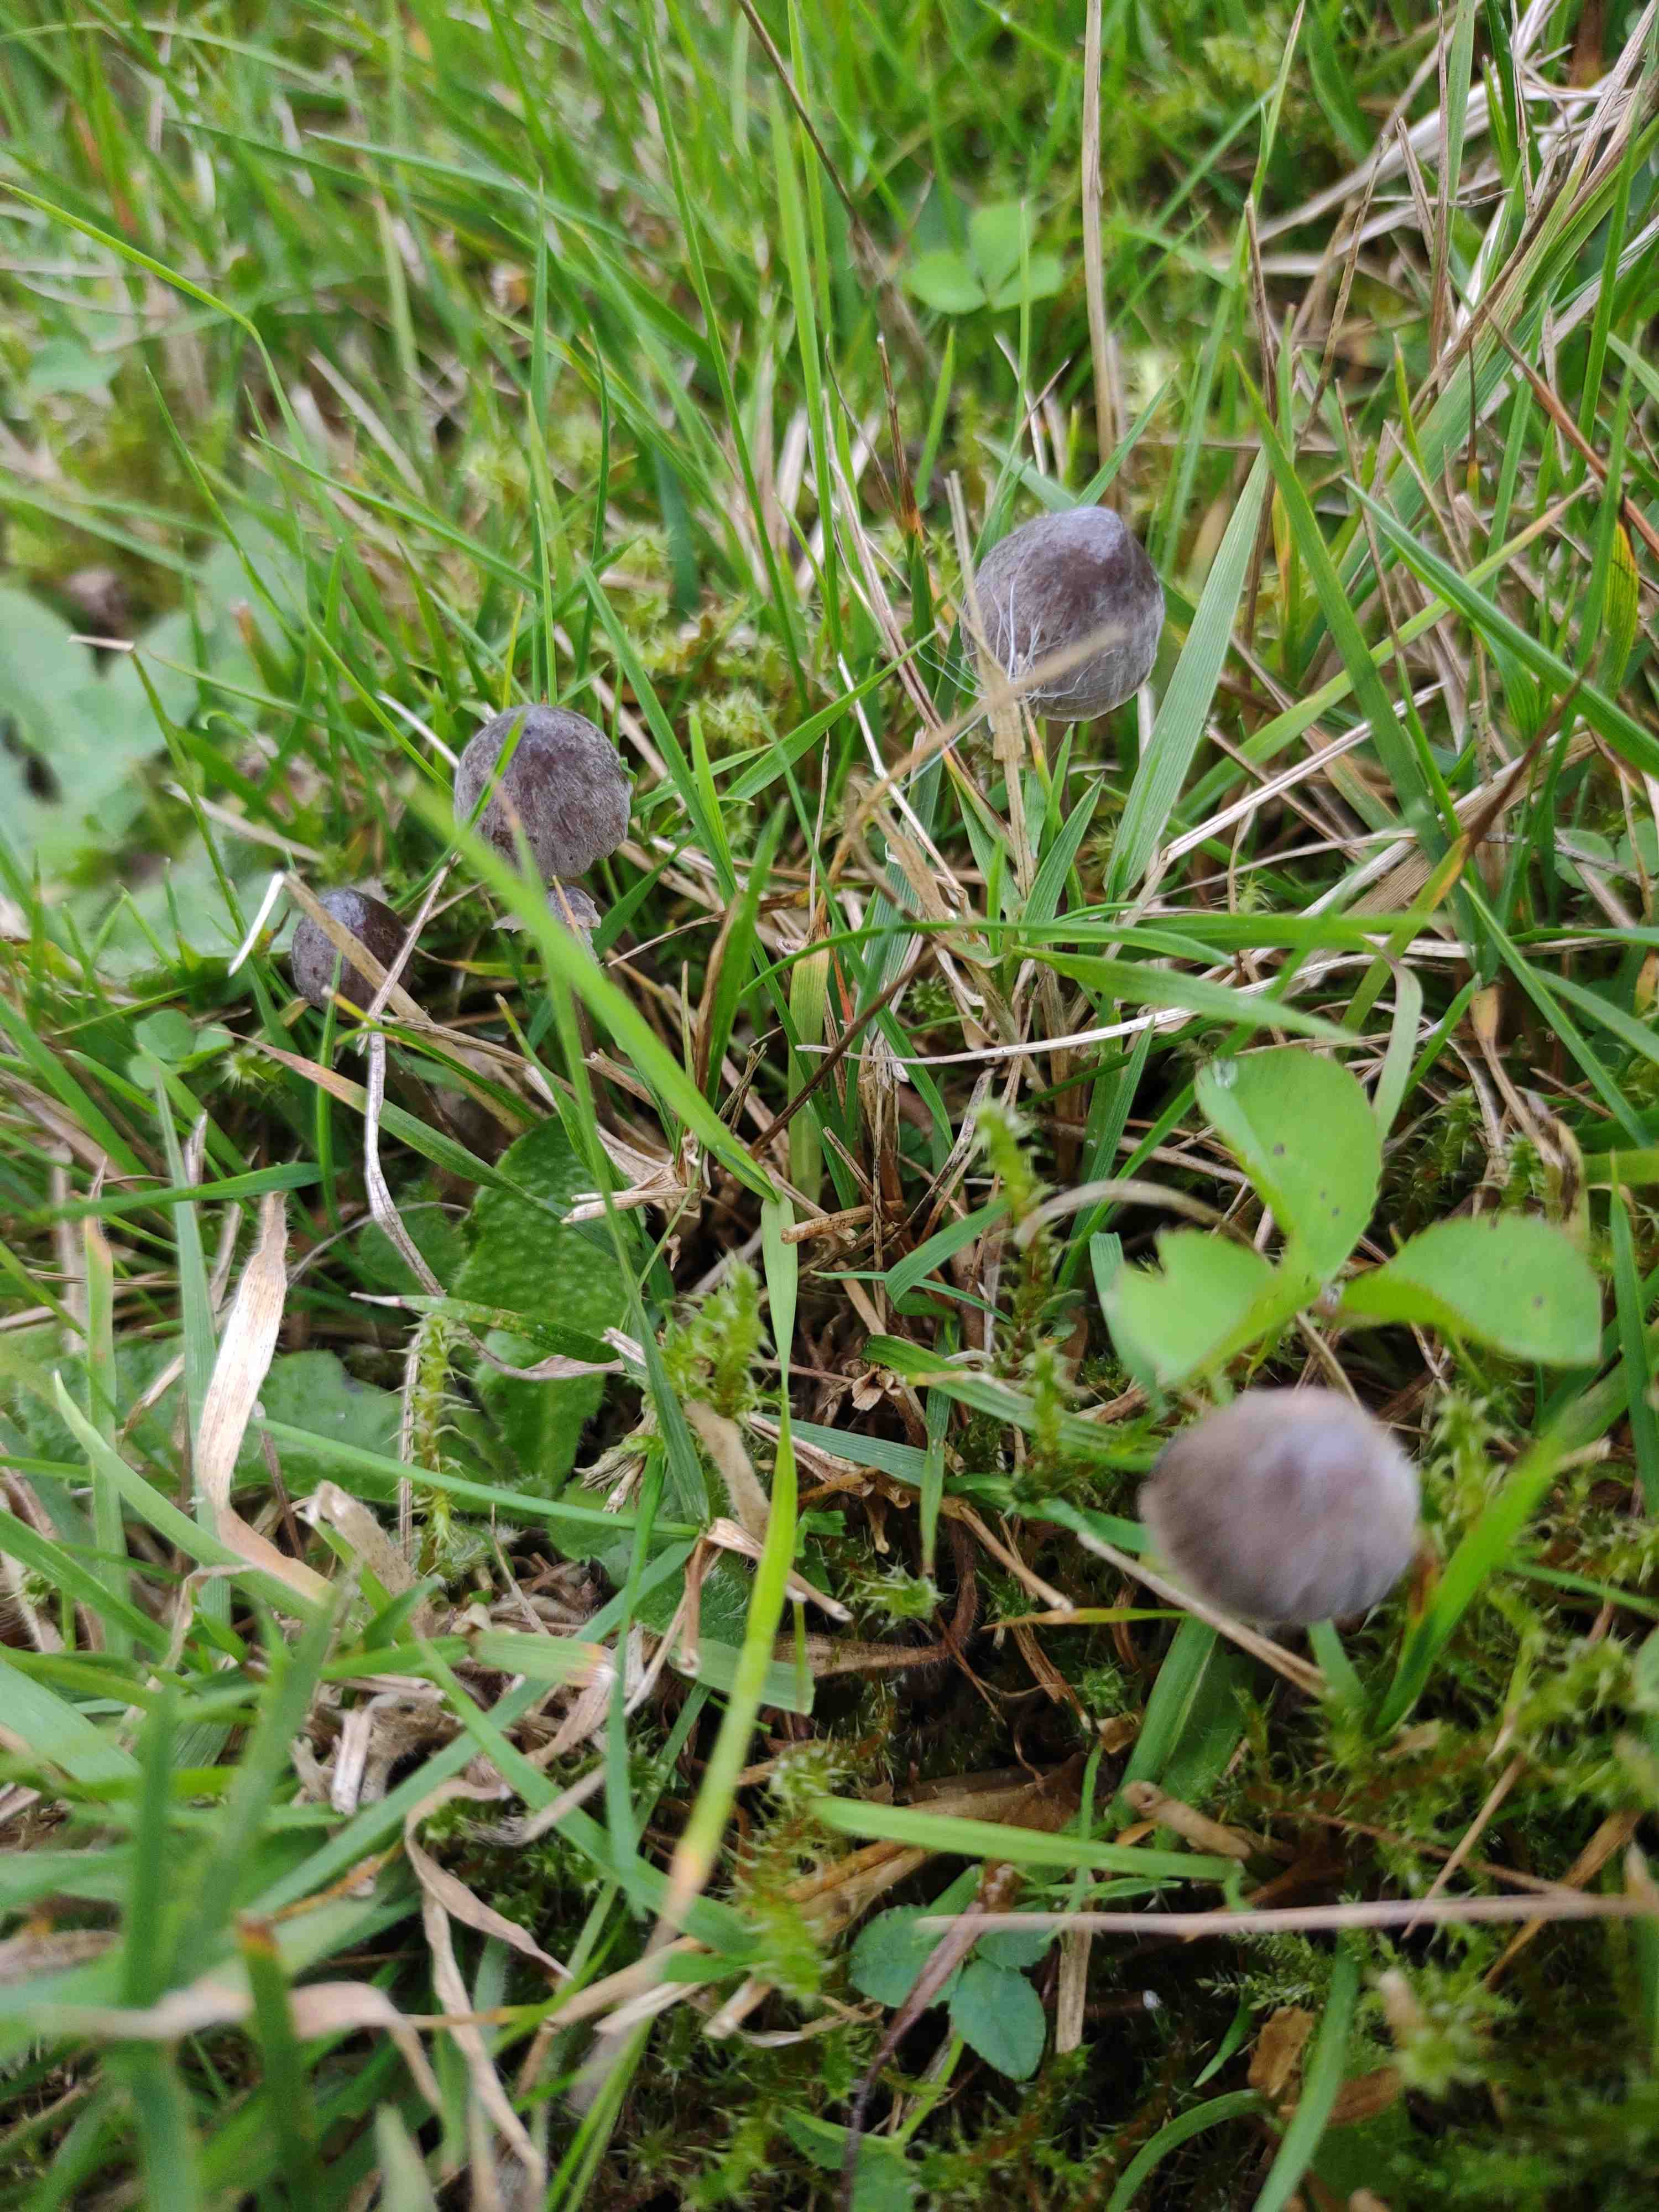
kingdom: Fungi
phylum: Basidiomycota
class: Agaricomycetes
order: Agaricales
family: Mycenaceae
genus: Mycena
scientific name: Mycena
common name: huesvamp
